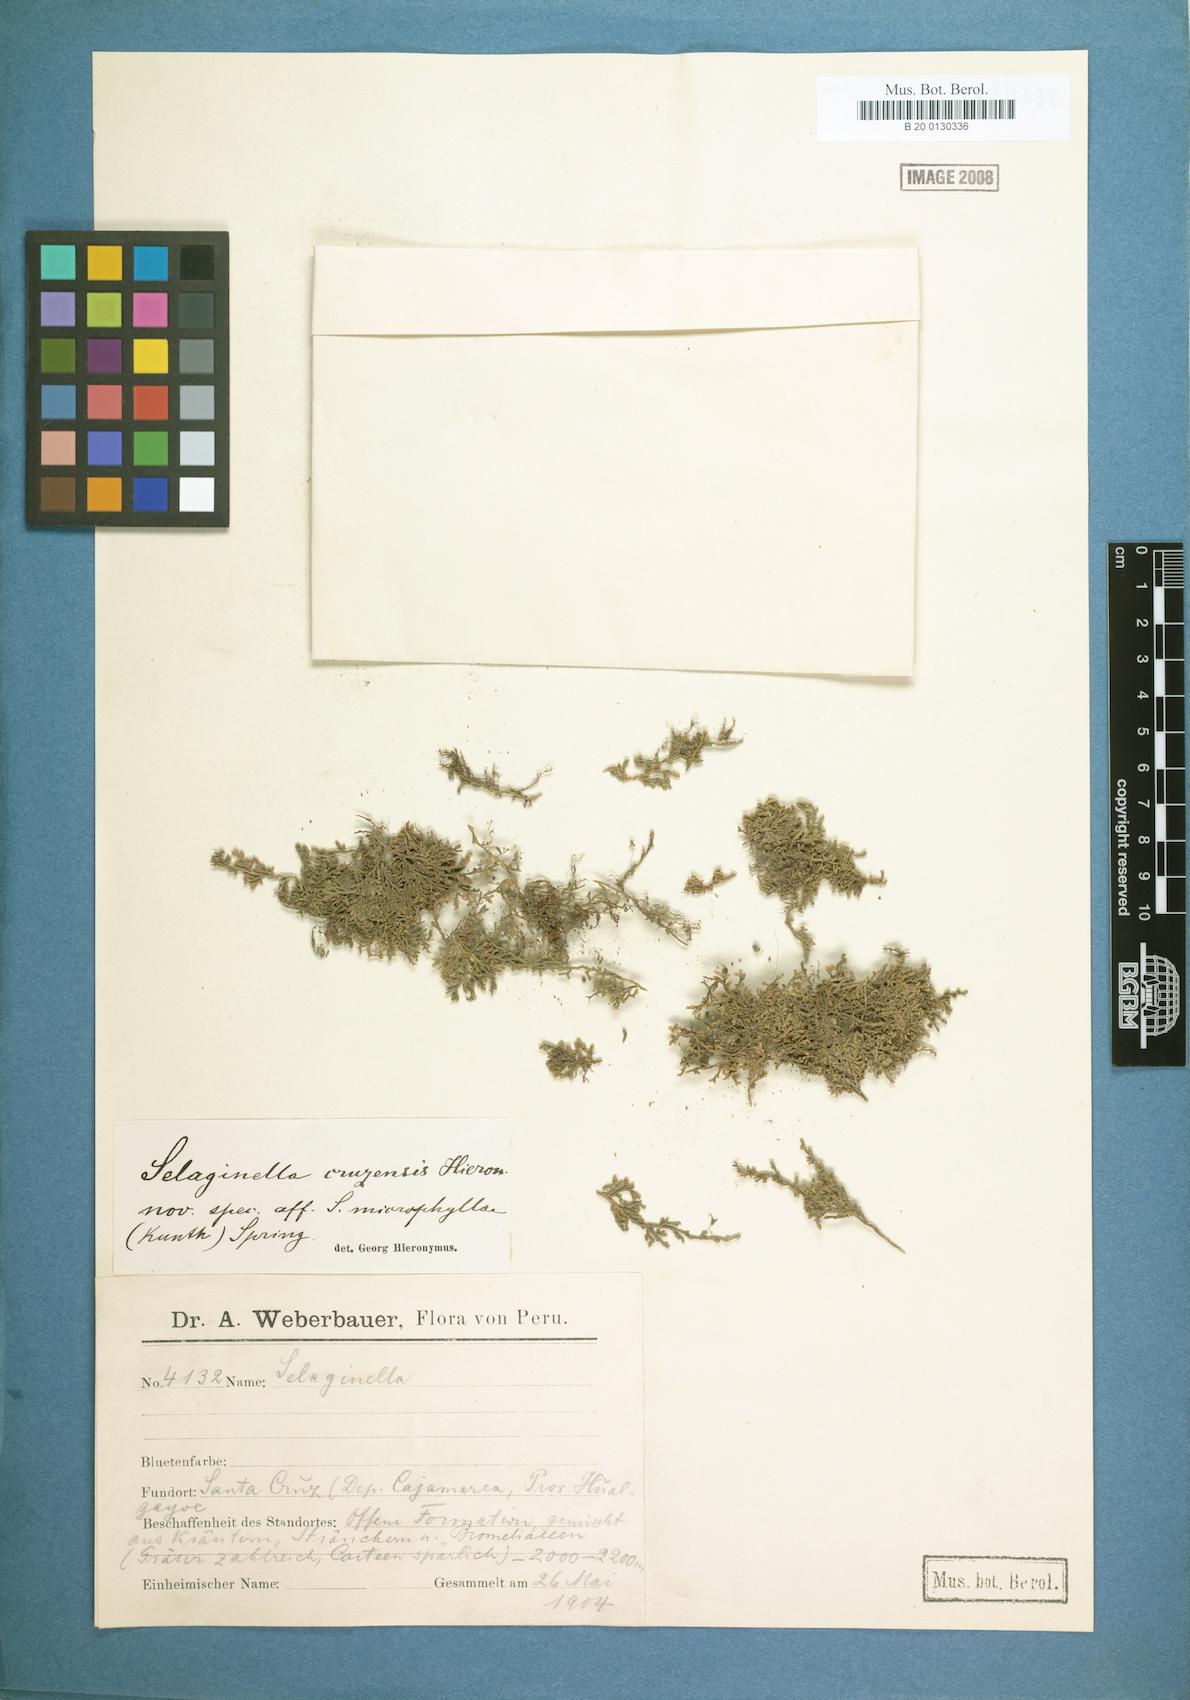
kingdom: Plantae
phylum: Tracheophyta
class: Lycopodiopsida
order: Selaginellales
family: Selaginellaceae
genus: Selaginella
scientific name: Selaginella
